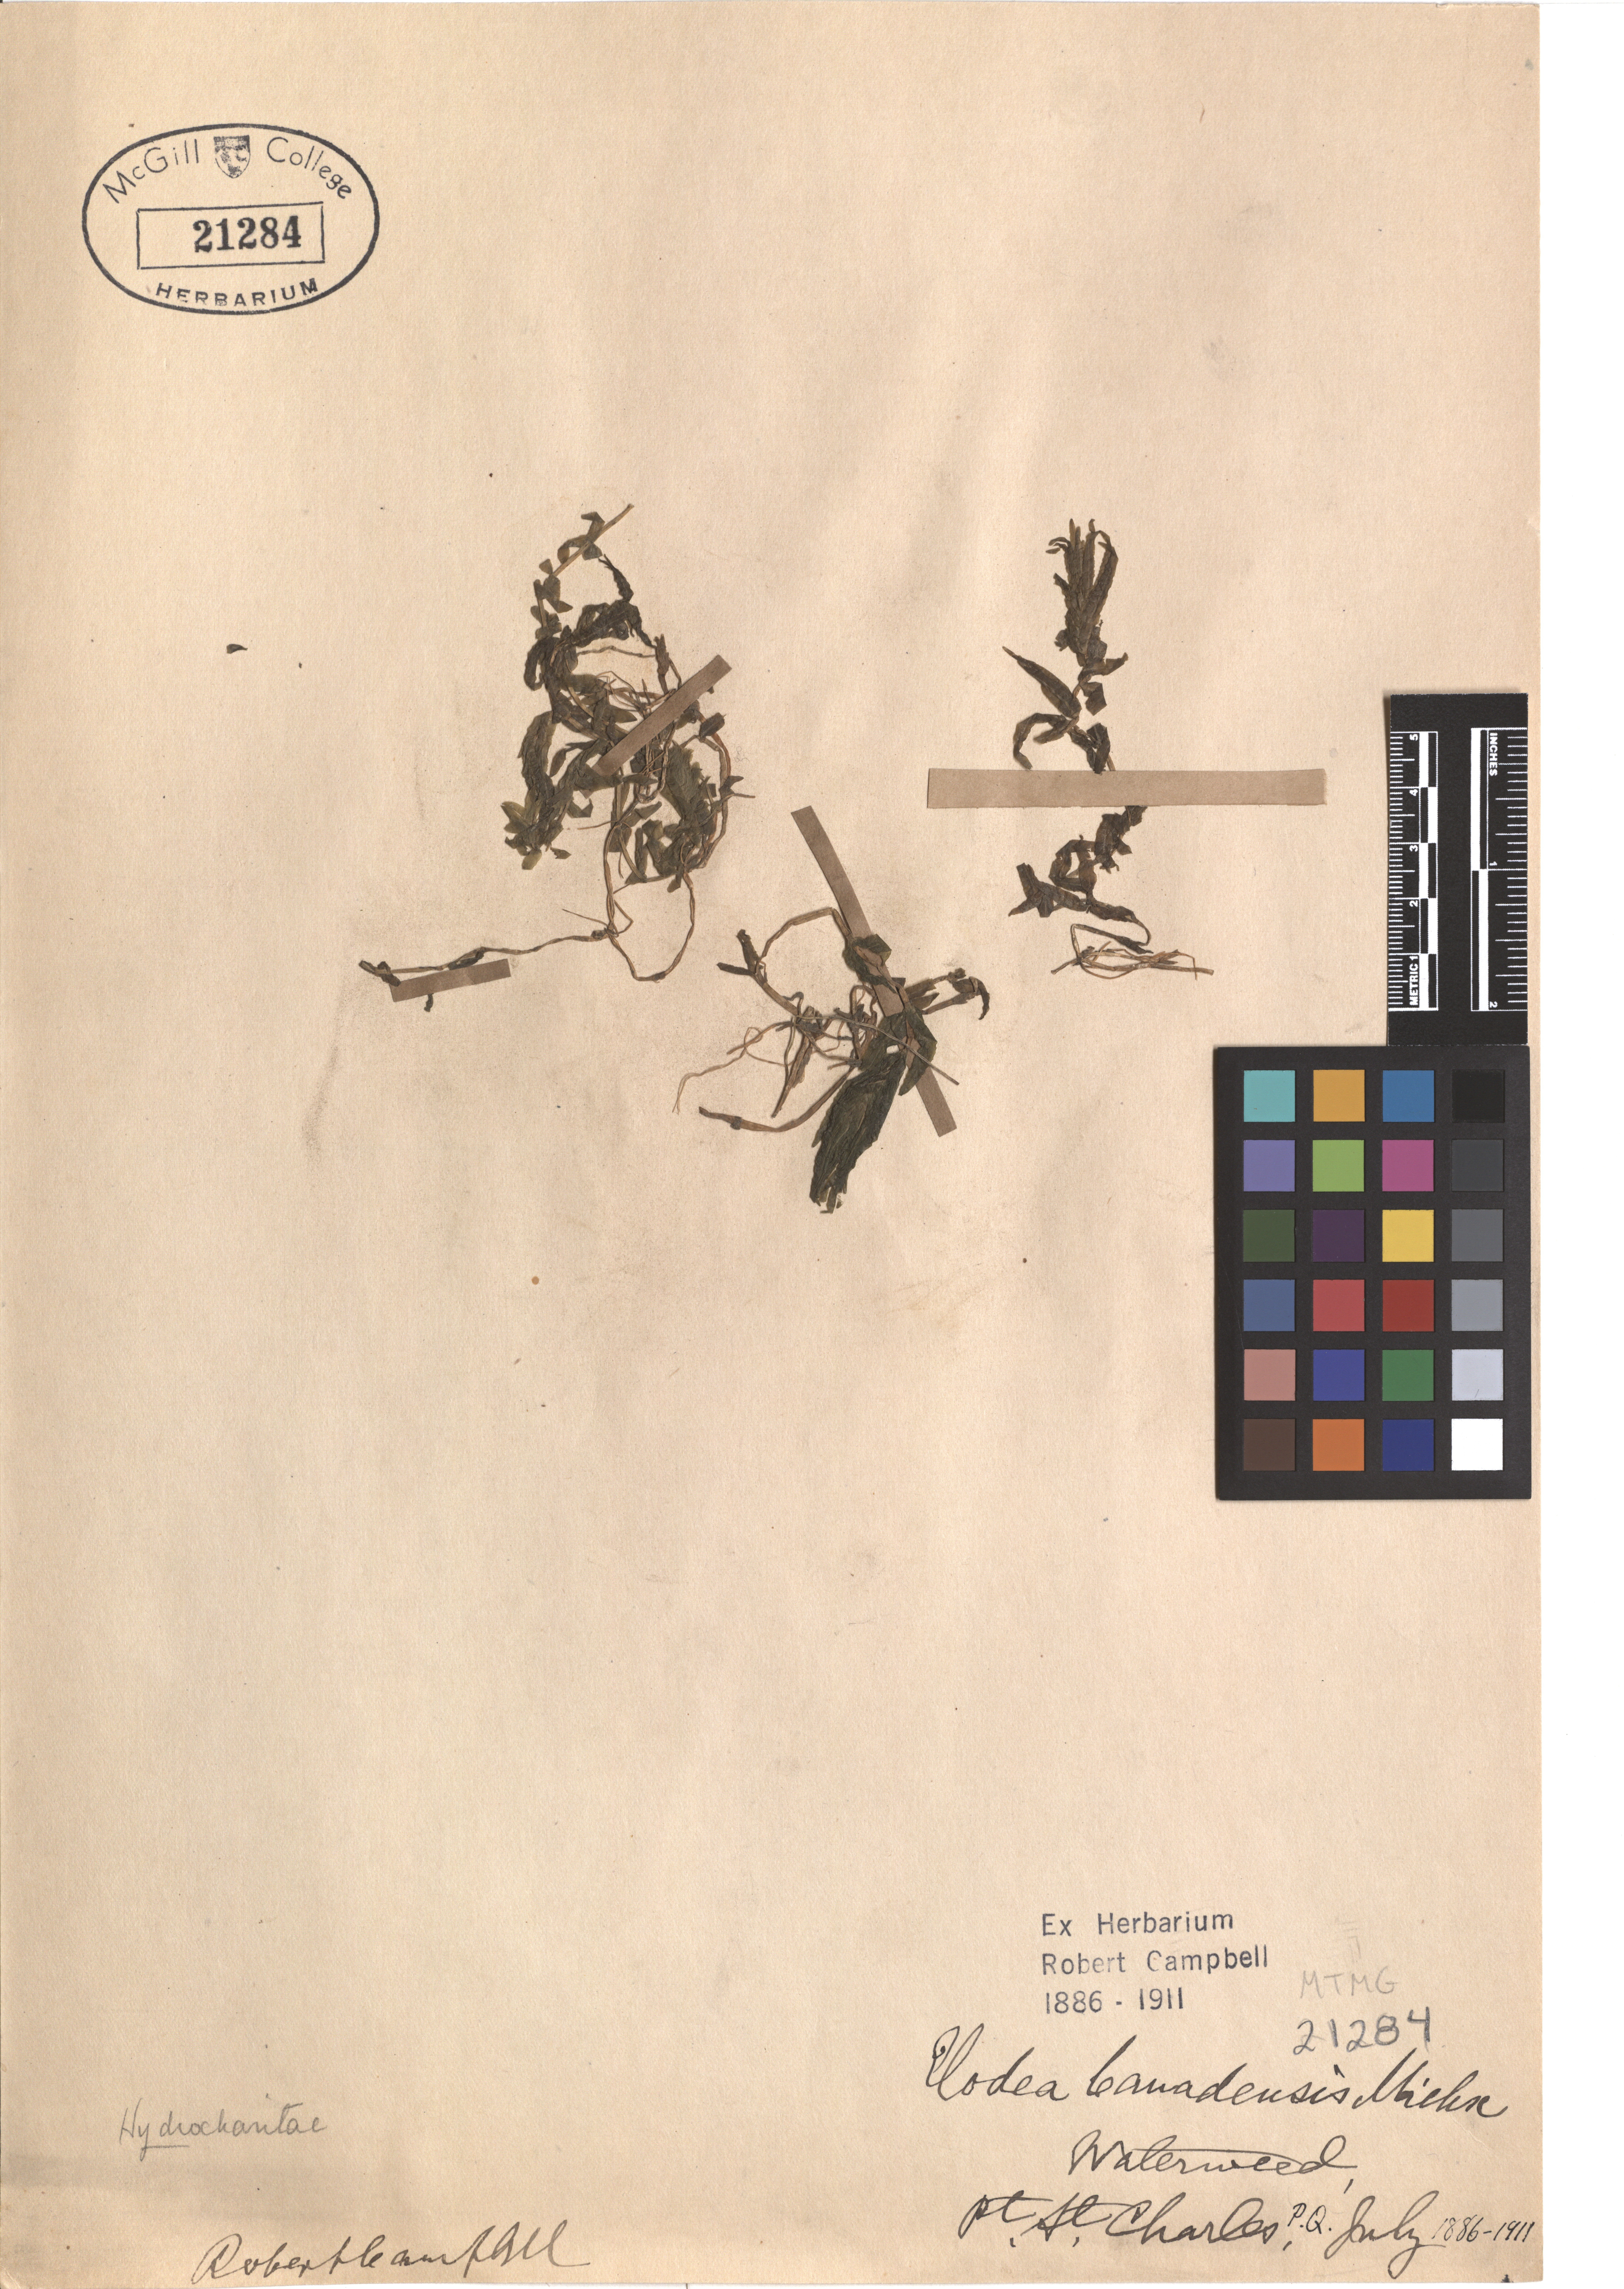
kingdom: Plantae
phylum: Tracheophyta
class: Liliopsida
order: Alismatales
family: Hydrocharitaceae
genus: Elodea
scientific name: Elodea canadensis
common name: Canadian waterweed
